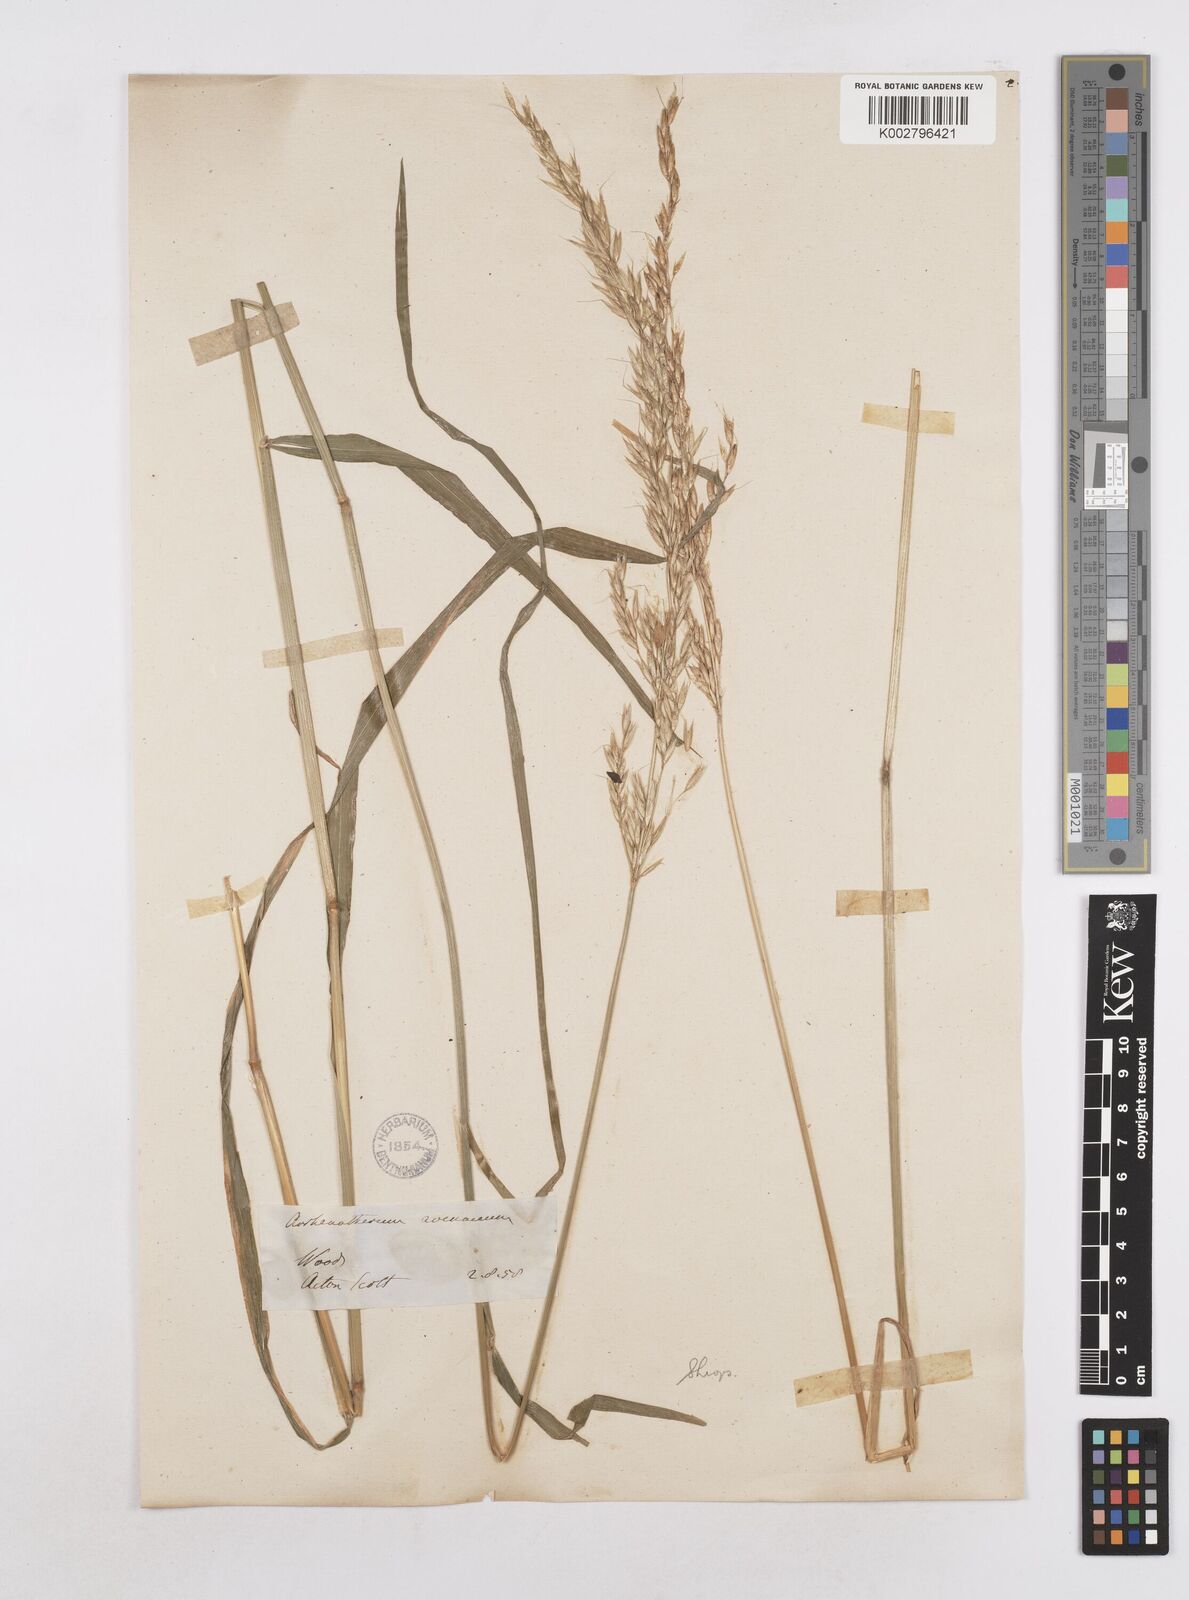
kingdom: Plantae
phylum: Tracheophyta
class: Liliopsida
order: Poales
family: Poaceae
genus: Arrhenatherum
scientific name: Arrhenatherum elatius
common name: Tall oatgrass
